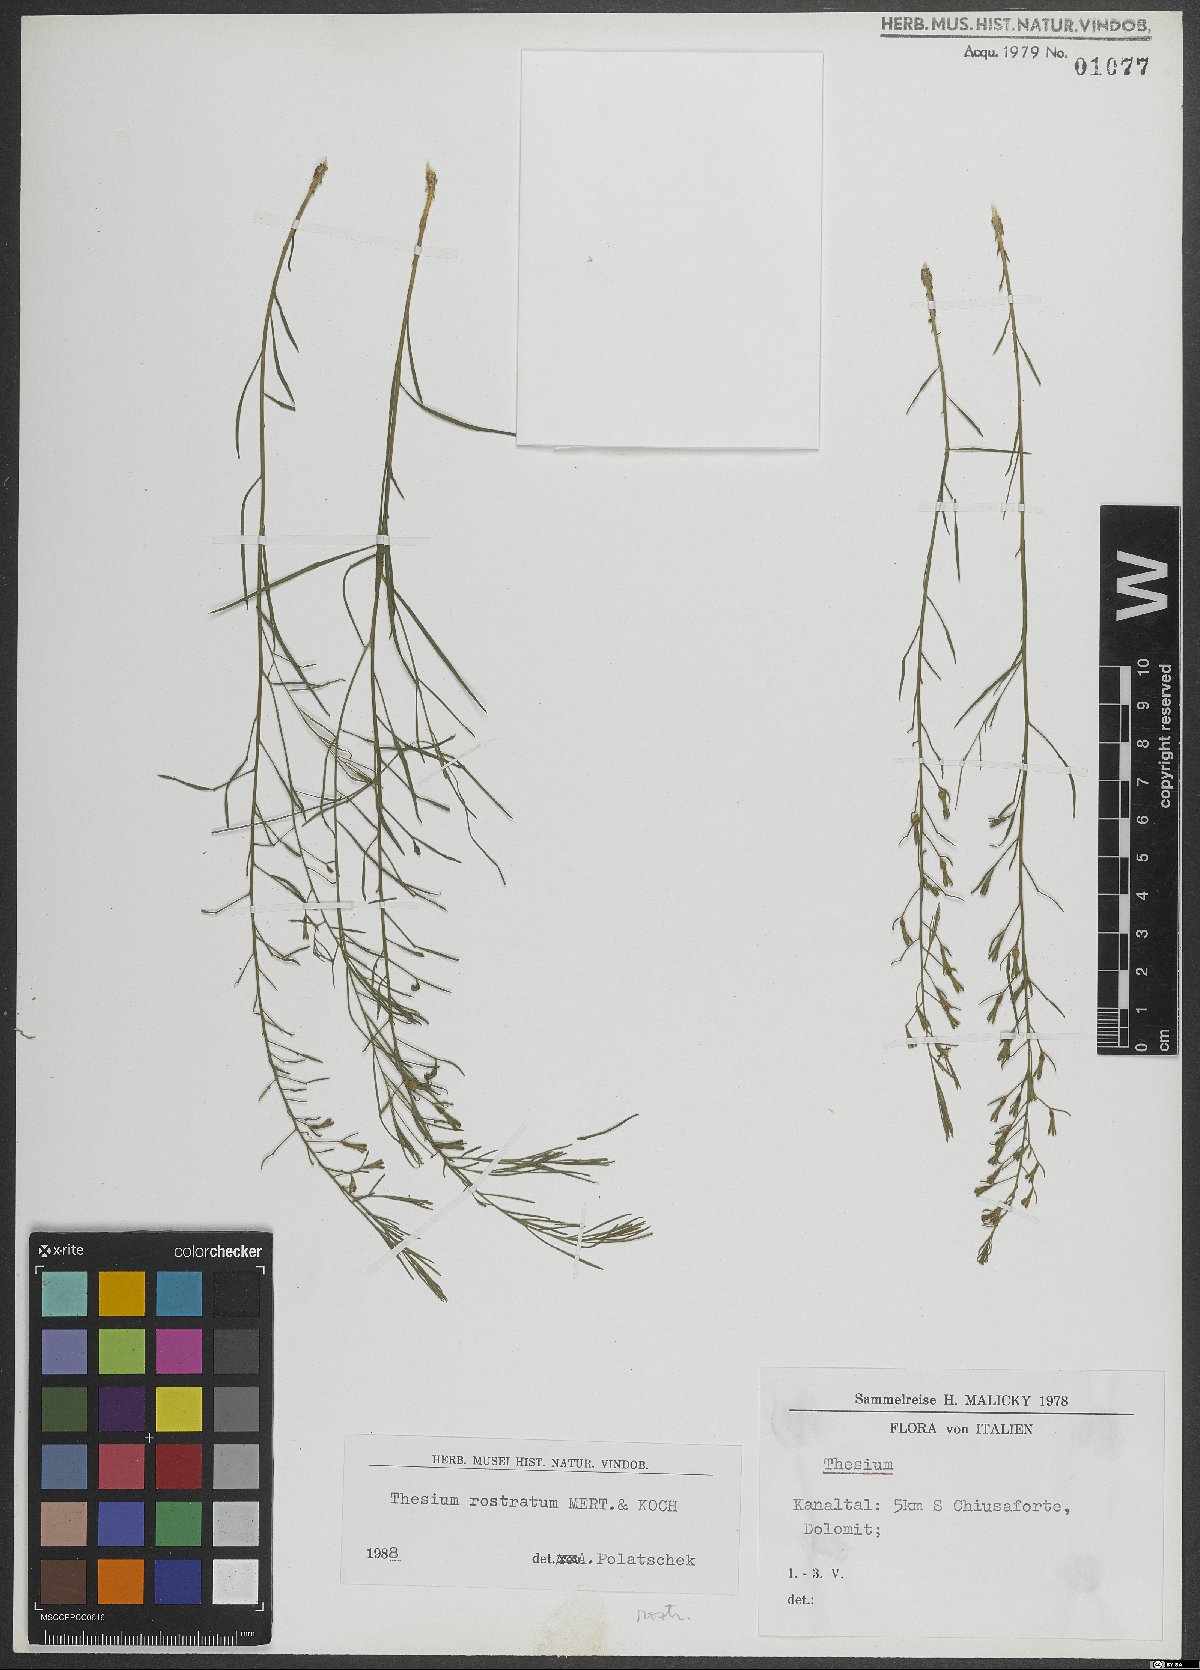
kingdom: Plantae
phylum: Tracheophyta
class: Magnoliopsida
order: Santalales
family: Thesiaceae
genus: Thesium
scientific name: Thesium rostratum
